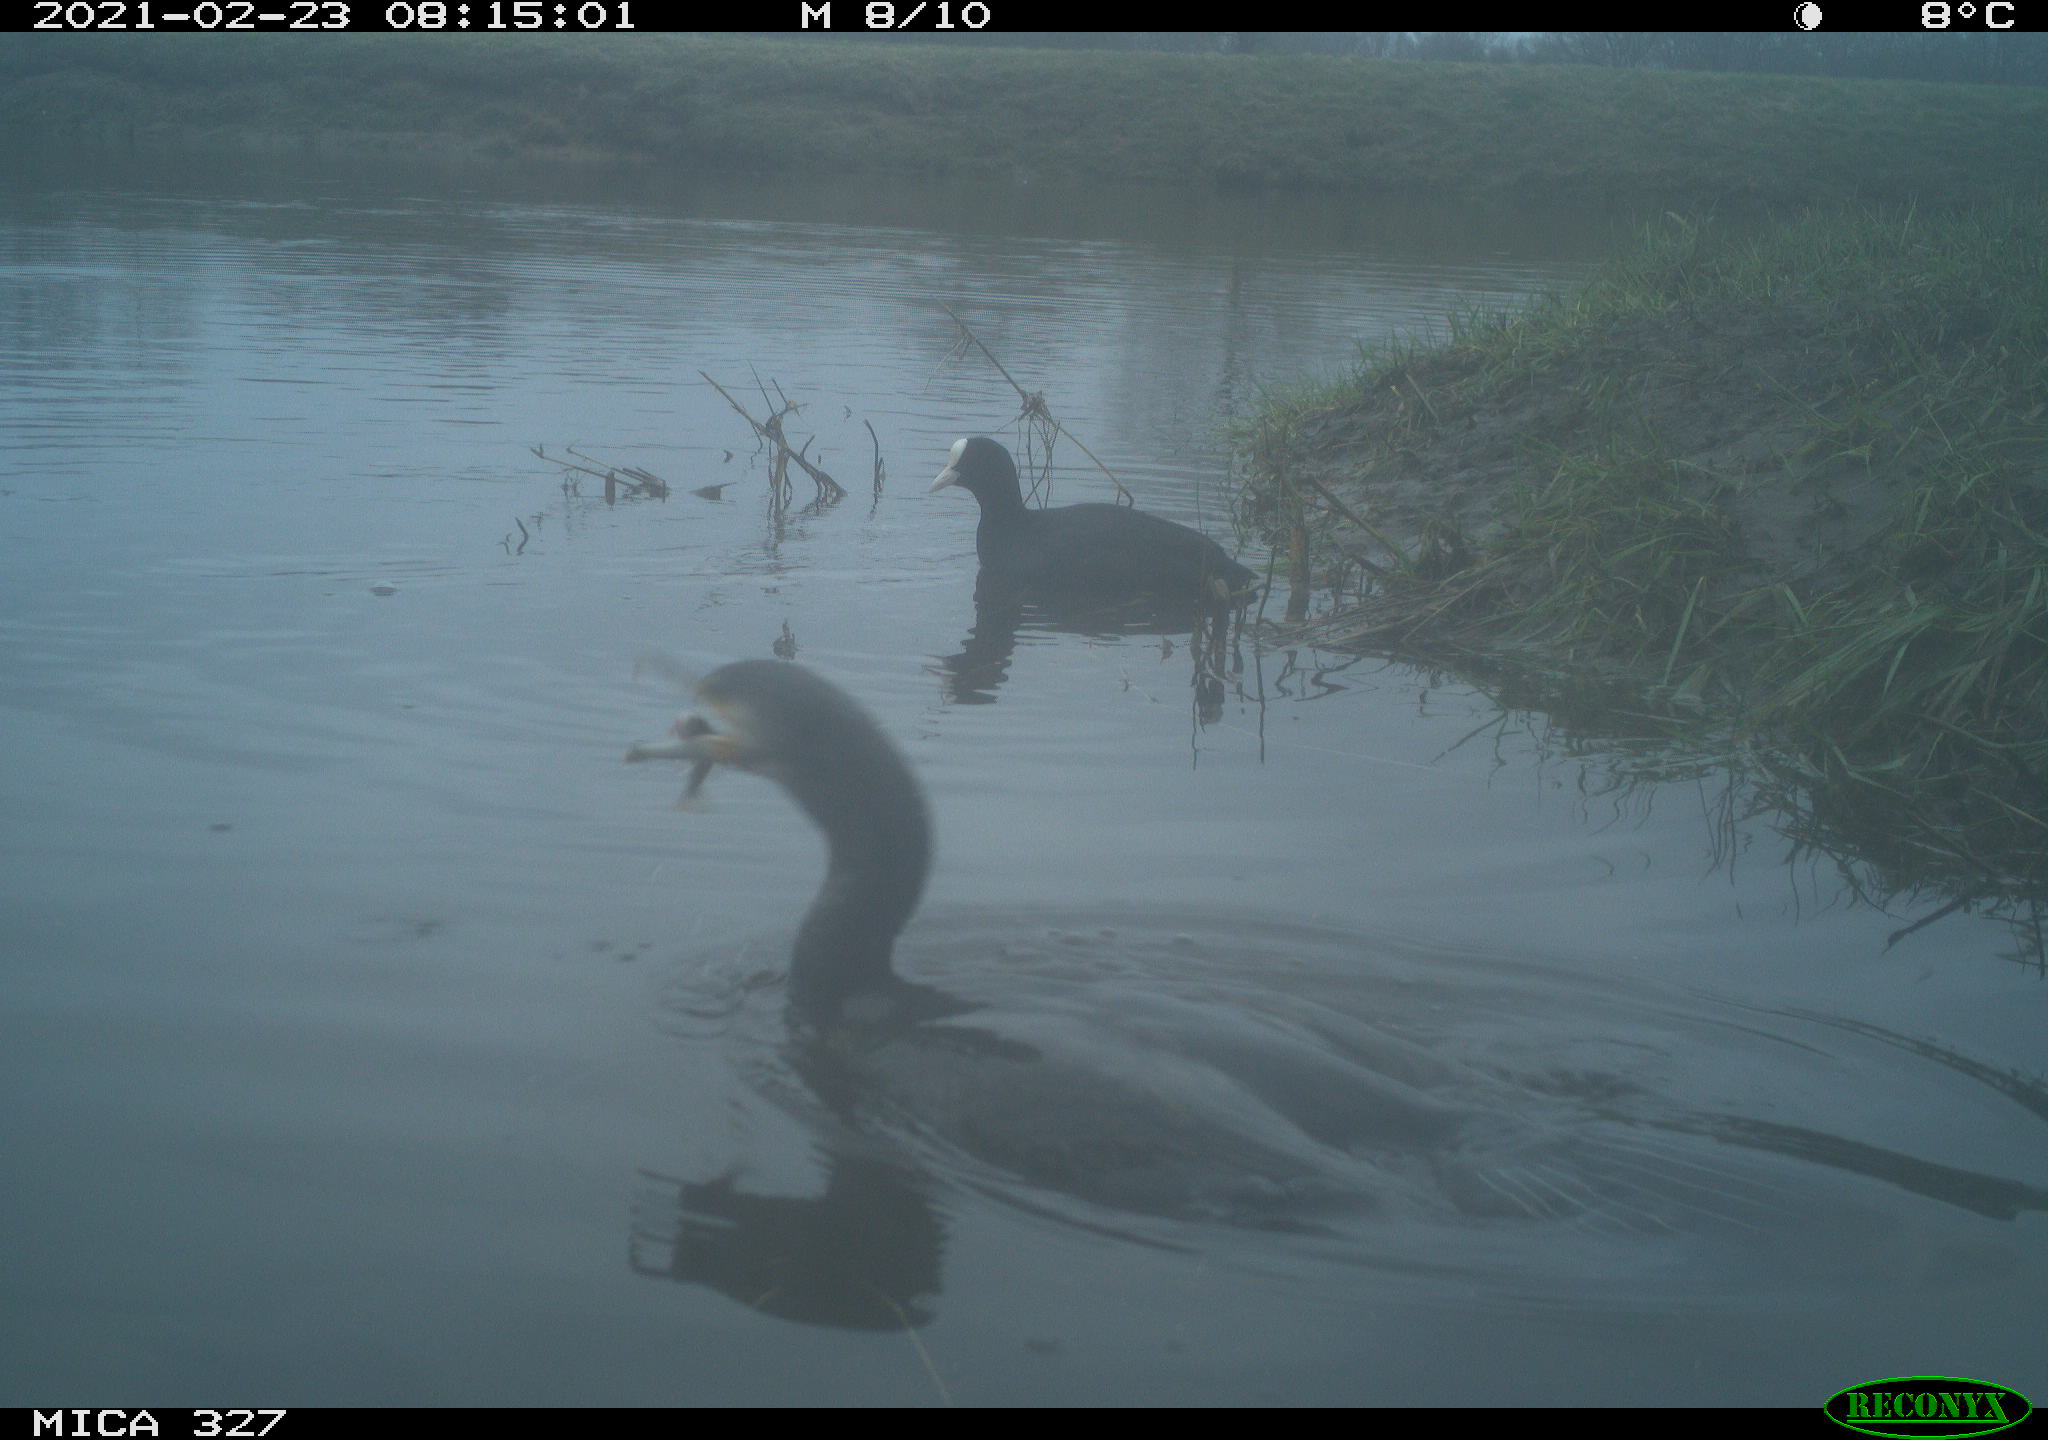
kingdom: Animalia
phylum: Chordata
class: Aves
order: Gruiformes
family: Rallidae
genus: Fulica
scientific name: Fulica atra
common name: Eurasian coot
